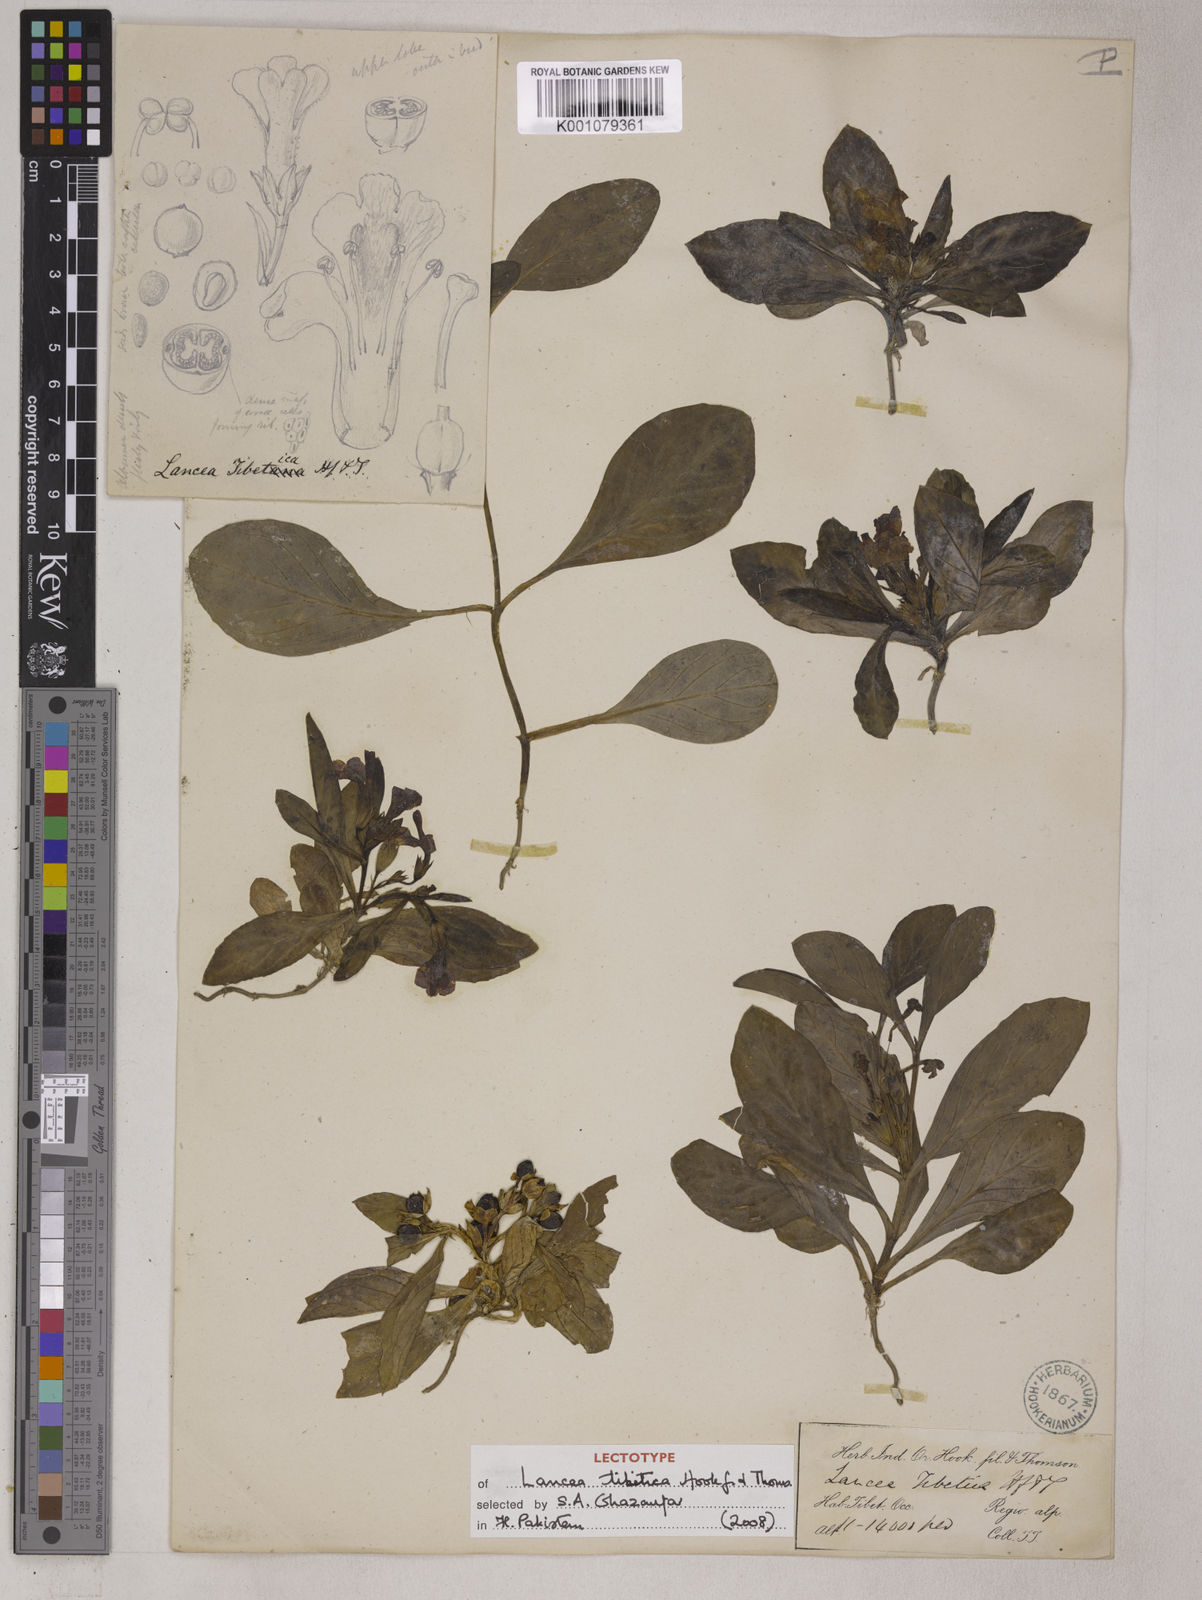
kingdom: Plantae
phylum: Tracheophyta
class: Magnoliopsida
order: Lamiales
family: Mazaceae
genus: Lancea
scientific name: Lancea tibetica
